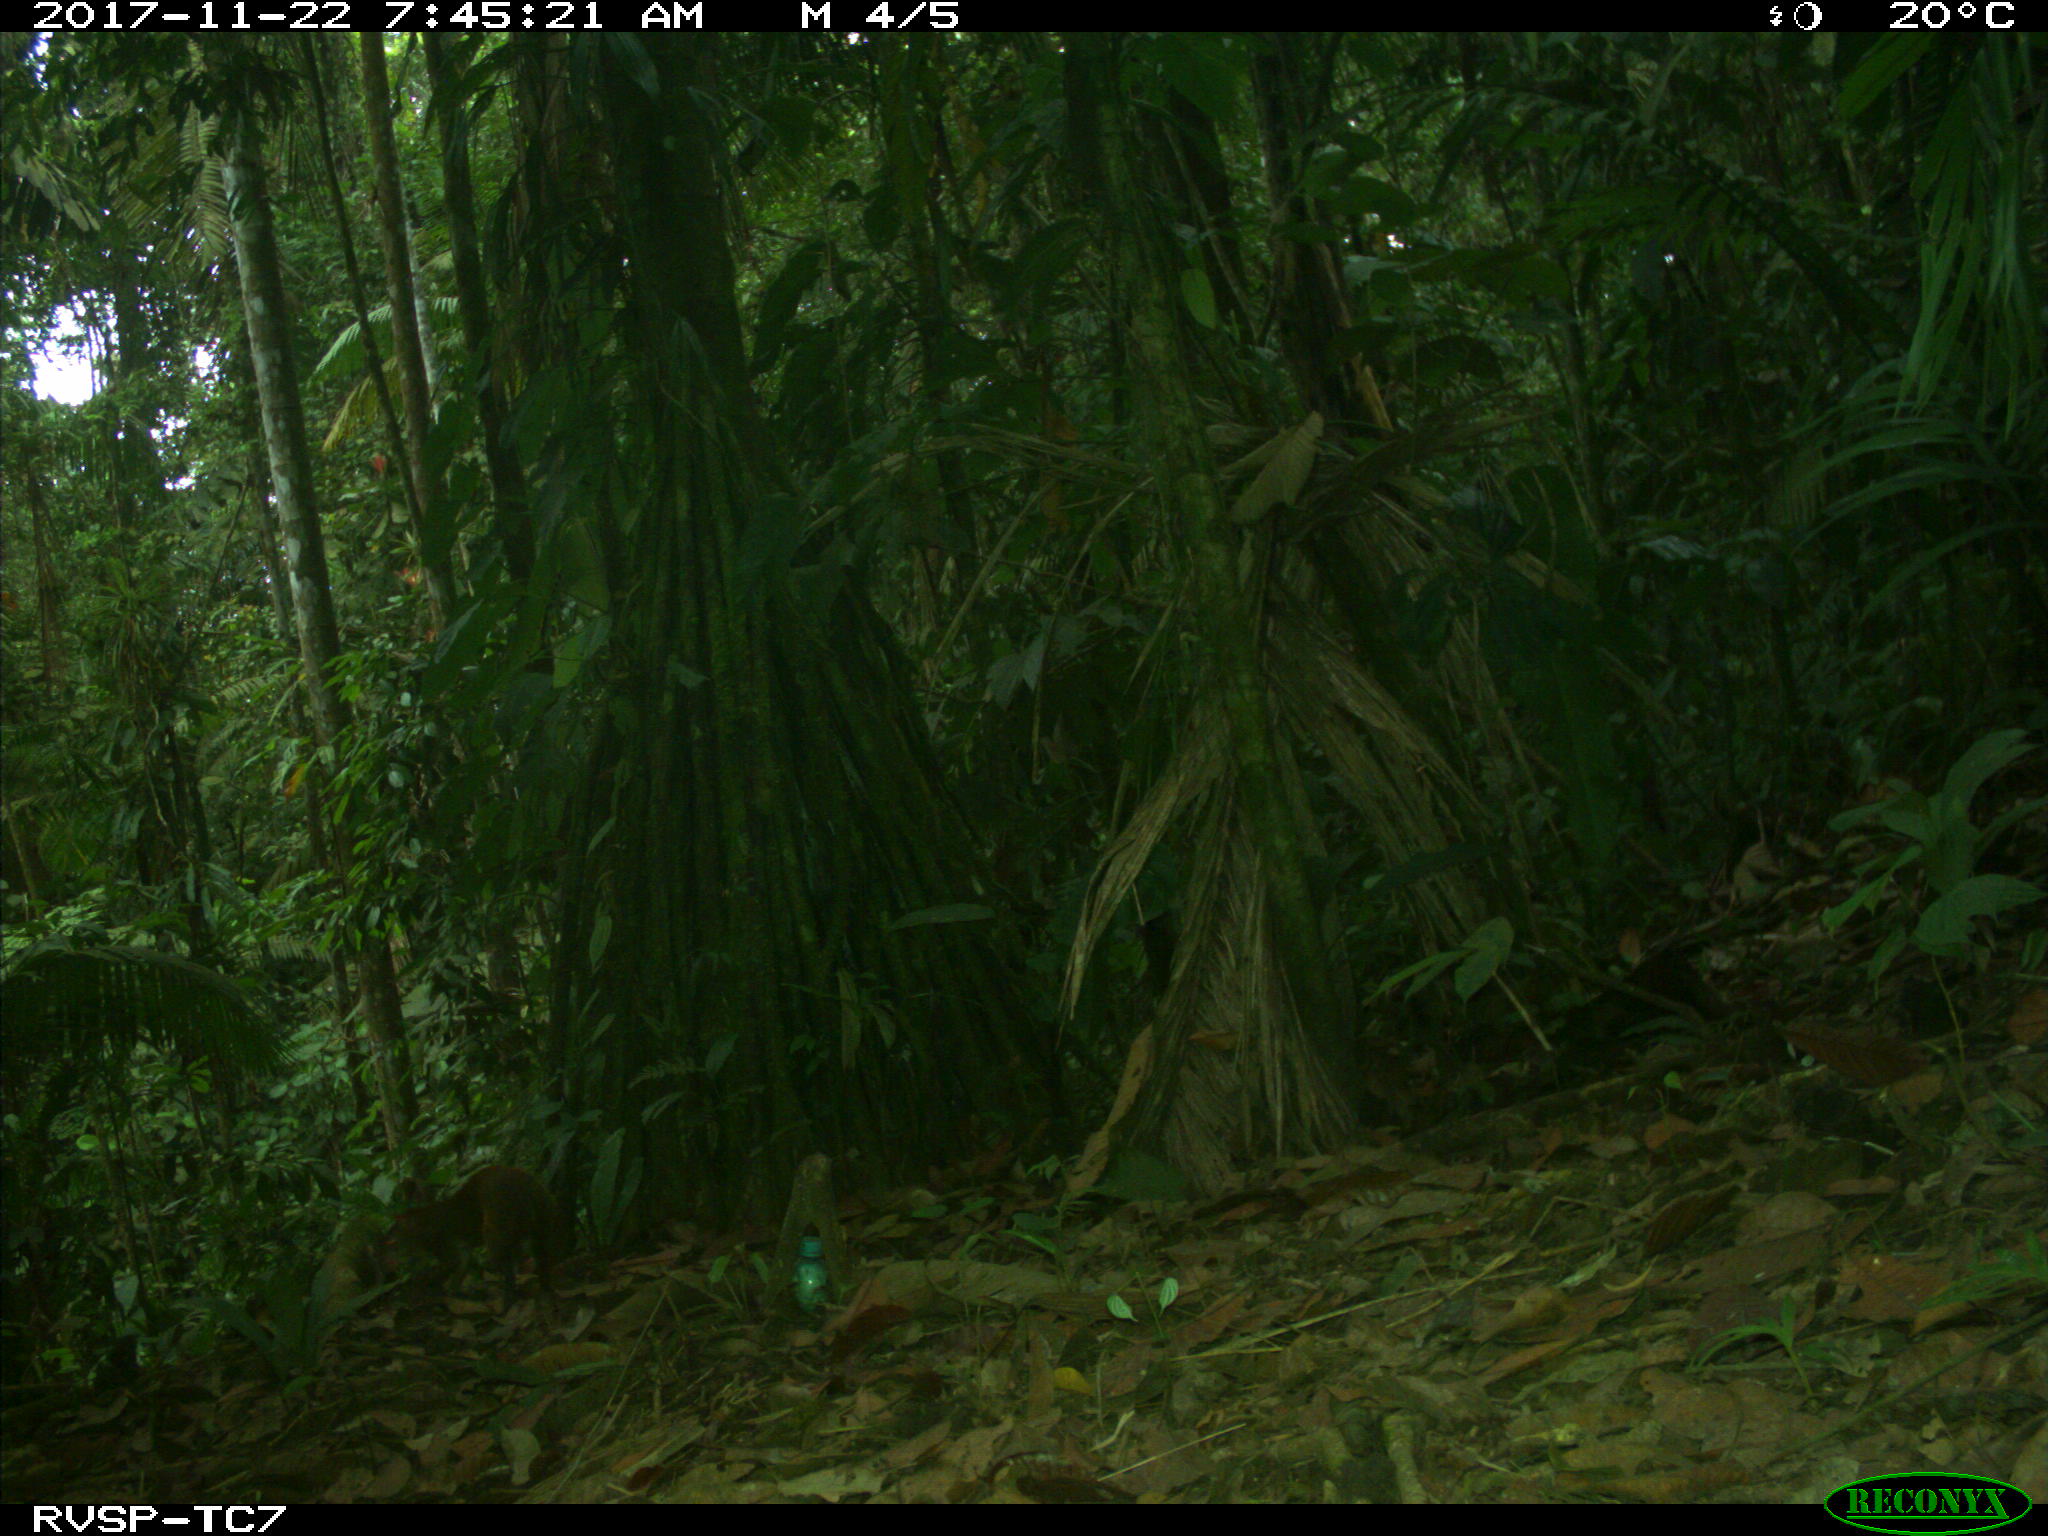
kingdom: Animalia
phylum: Chordata
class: Mammalia
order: Rodentia
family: Dasyproctidae
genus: Dasyprocta
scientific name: Dasyprocta punctata
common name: Central american agouti
